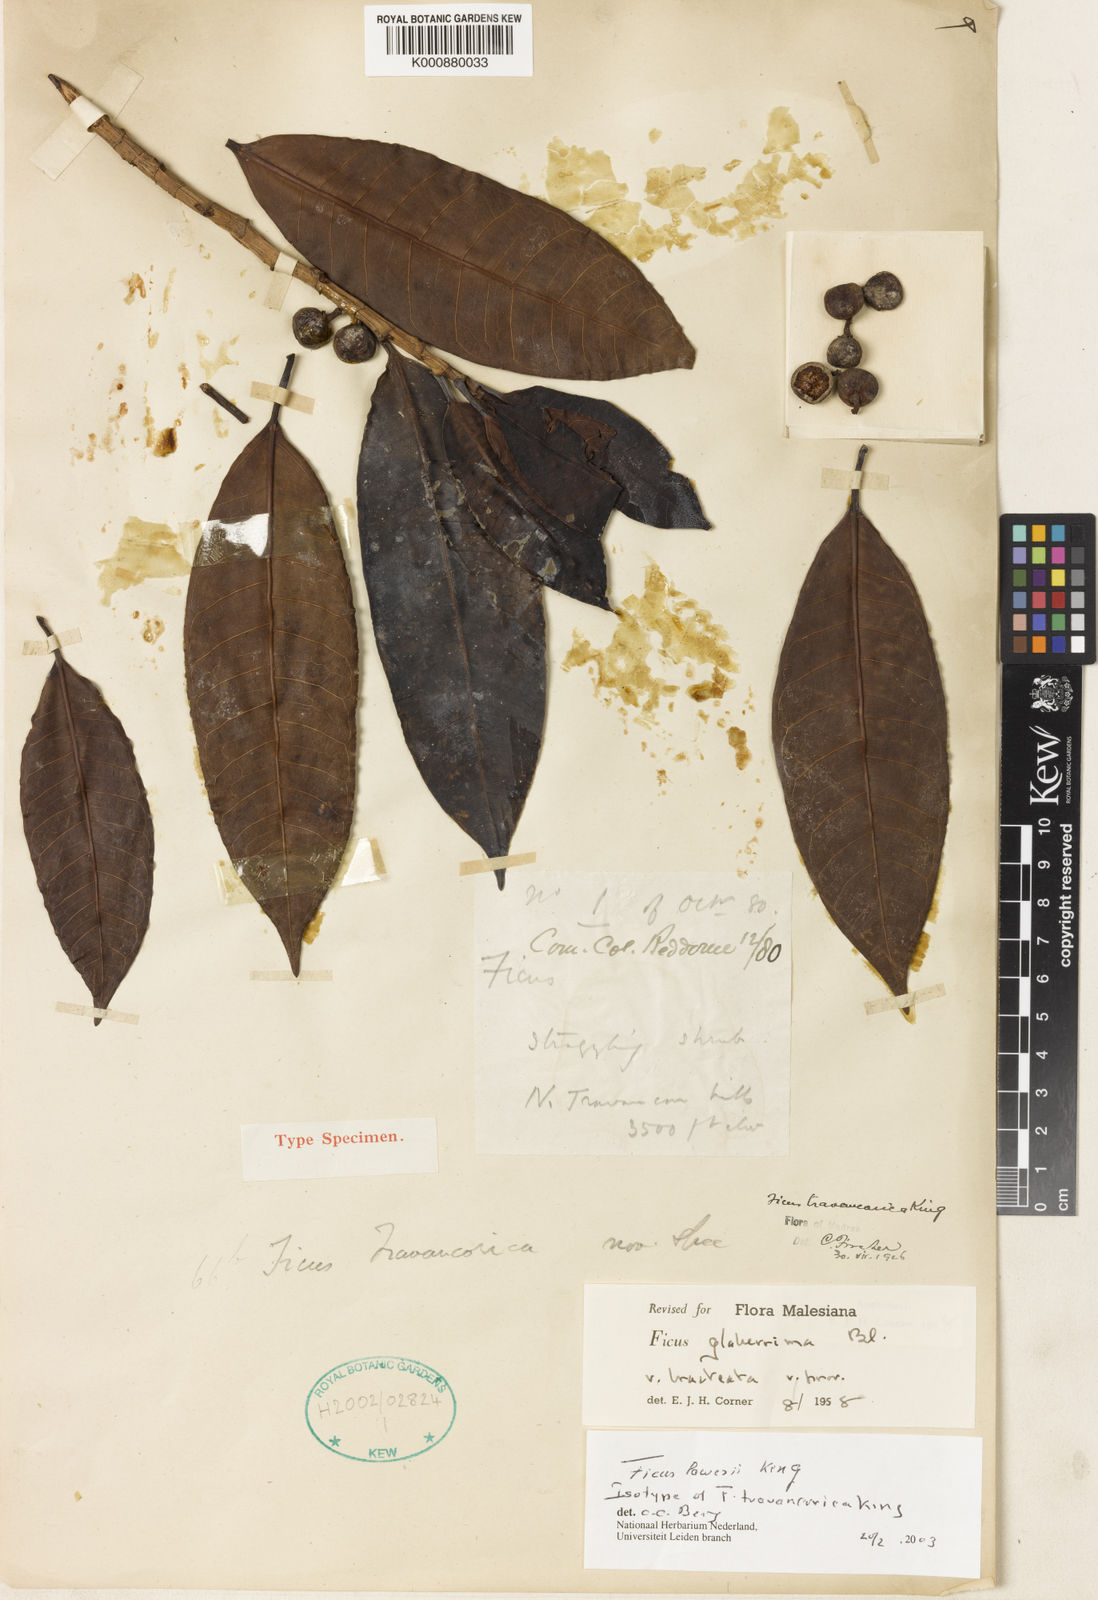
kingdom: Plantae
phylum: Tracheophyta
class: Magnoliopsida
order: Rosales
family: Moraceae
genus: Ficus
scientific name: Ficus glaberrima
